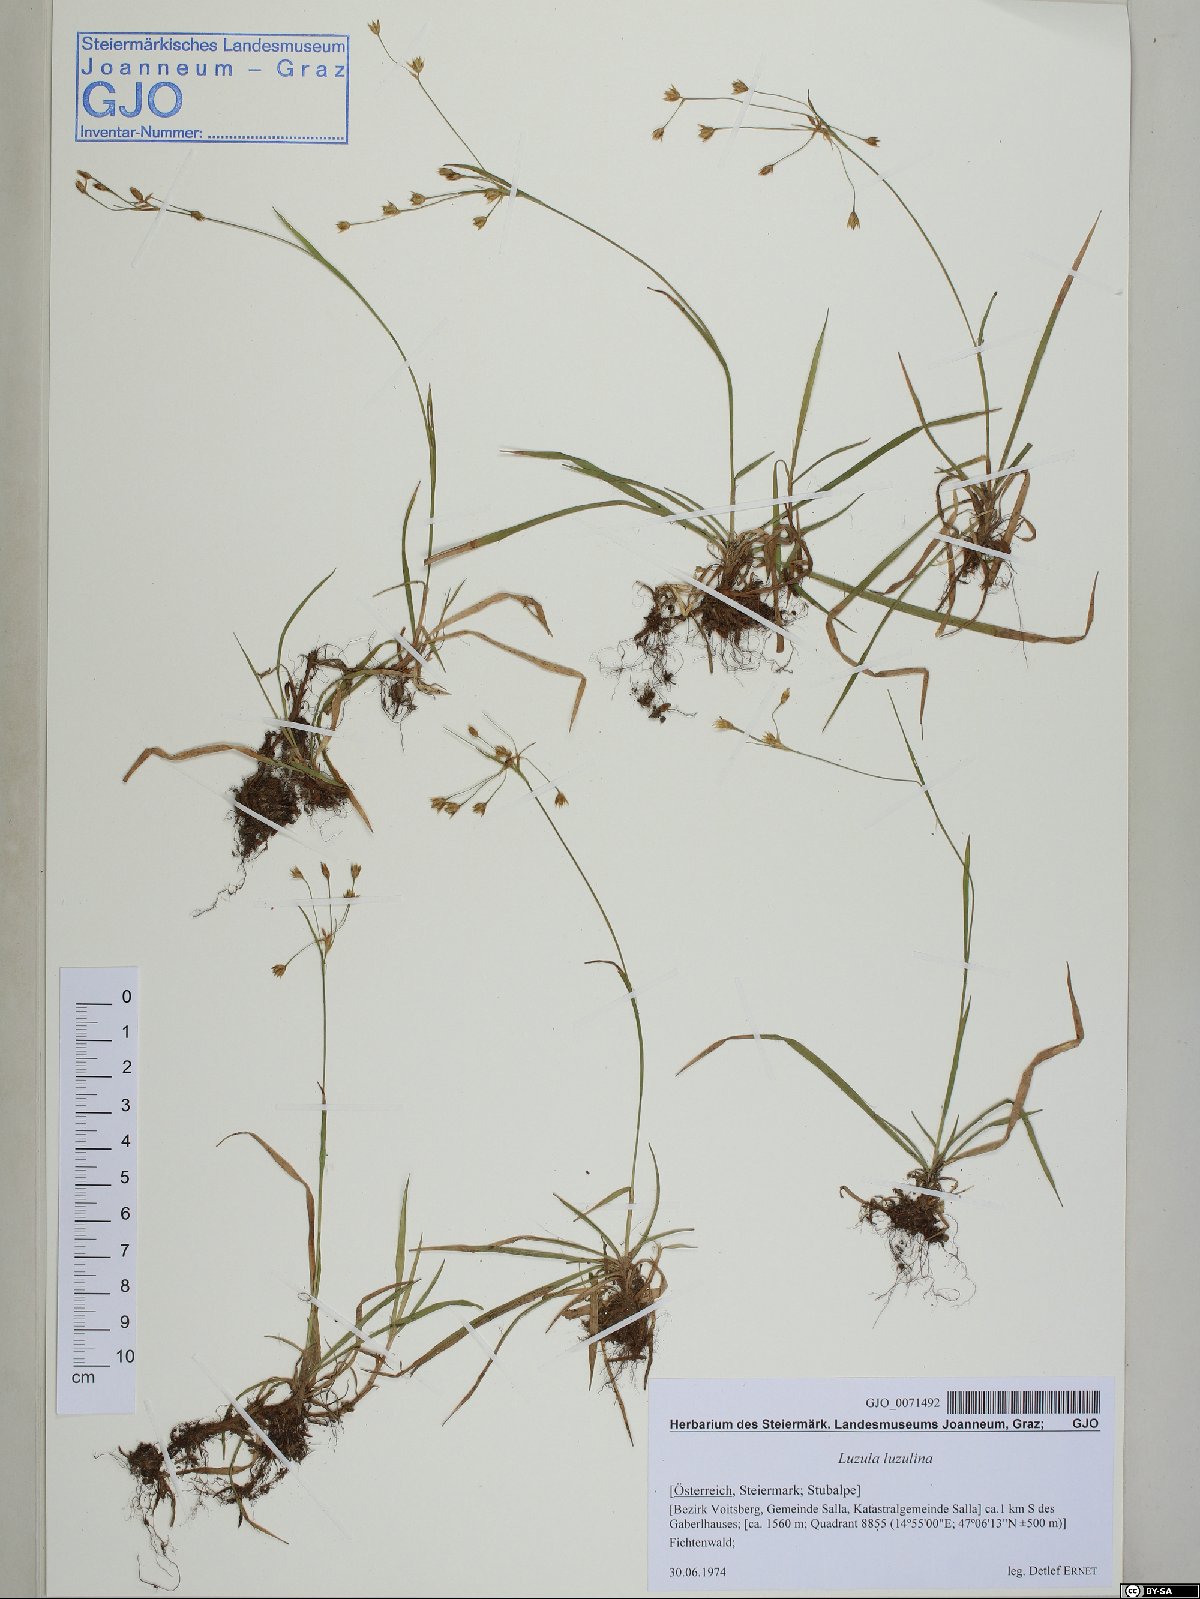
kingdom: Plantae
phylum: Tracheophyta
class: Liliopsida
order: Poales
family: Juncaceae
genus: Luzula
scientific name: Luzula luzulina
